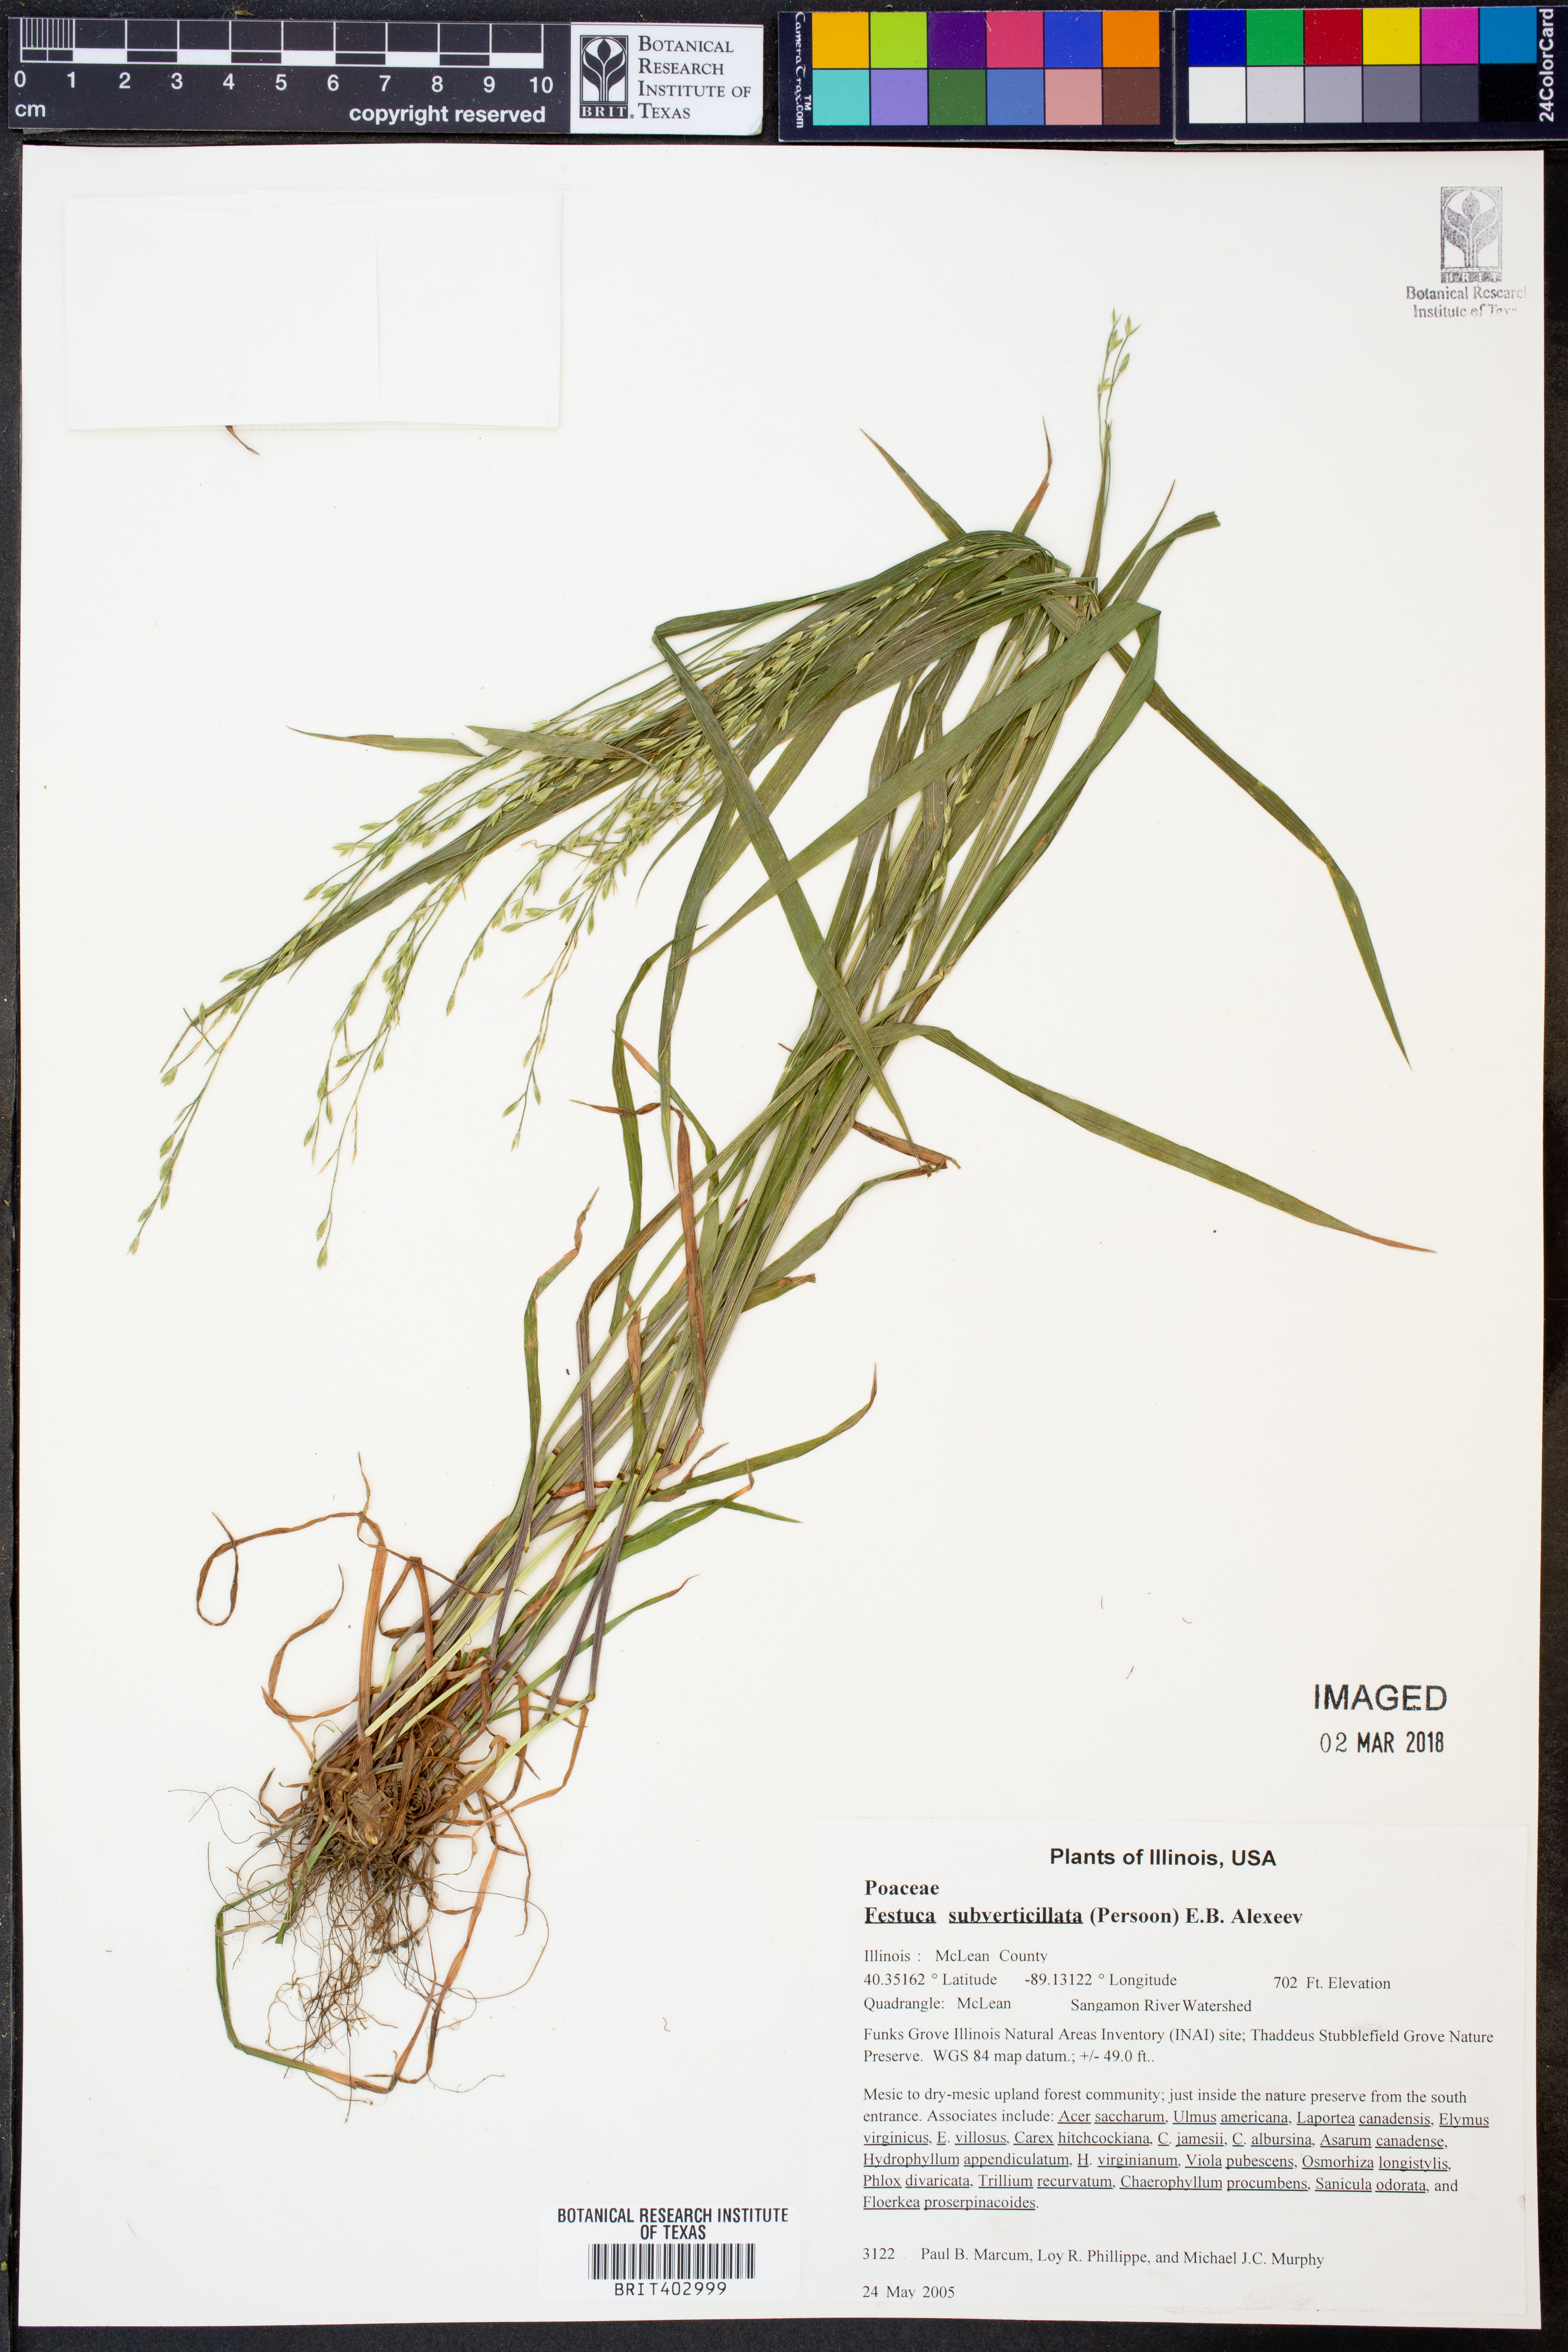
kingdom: Plantae
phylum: Tracheophyta
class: Liliopsida
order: Poales
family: Poaceae
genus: Festuca
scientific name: Festuca subverticillata
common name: Nodding fescue
